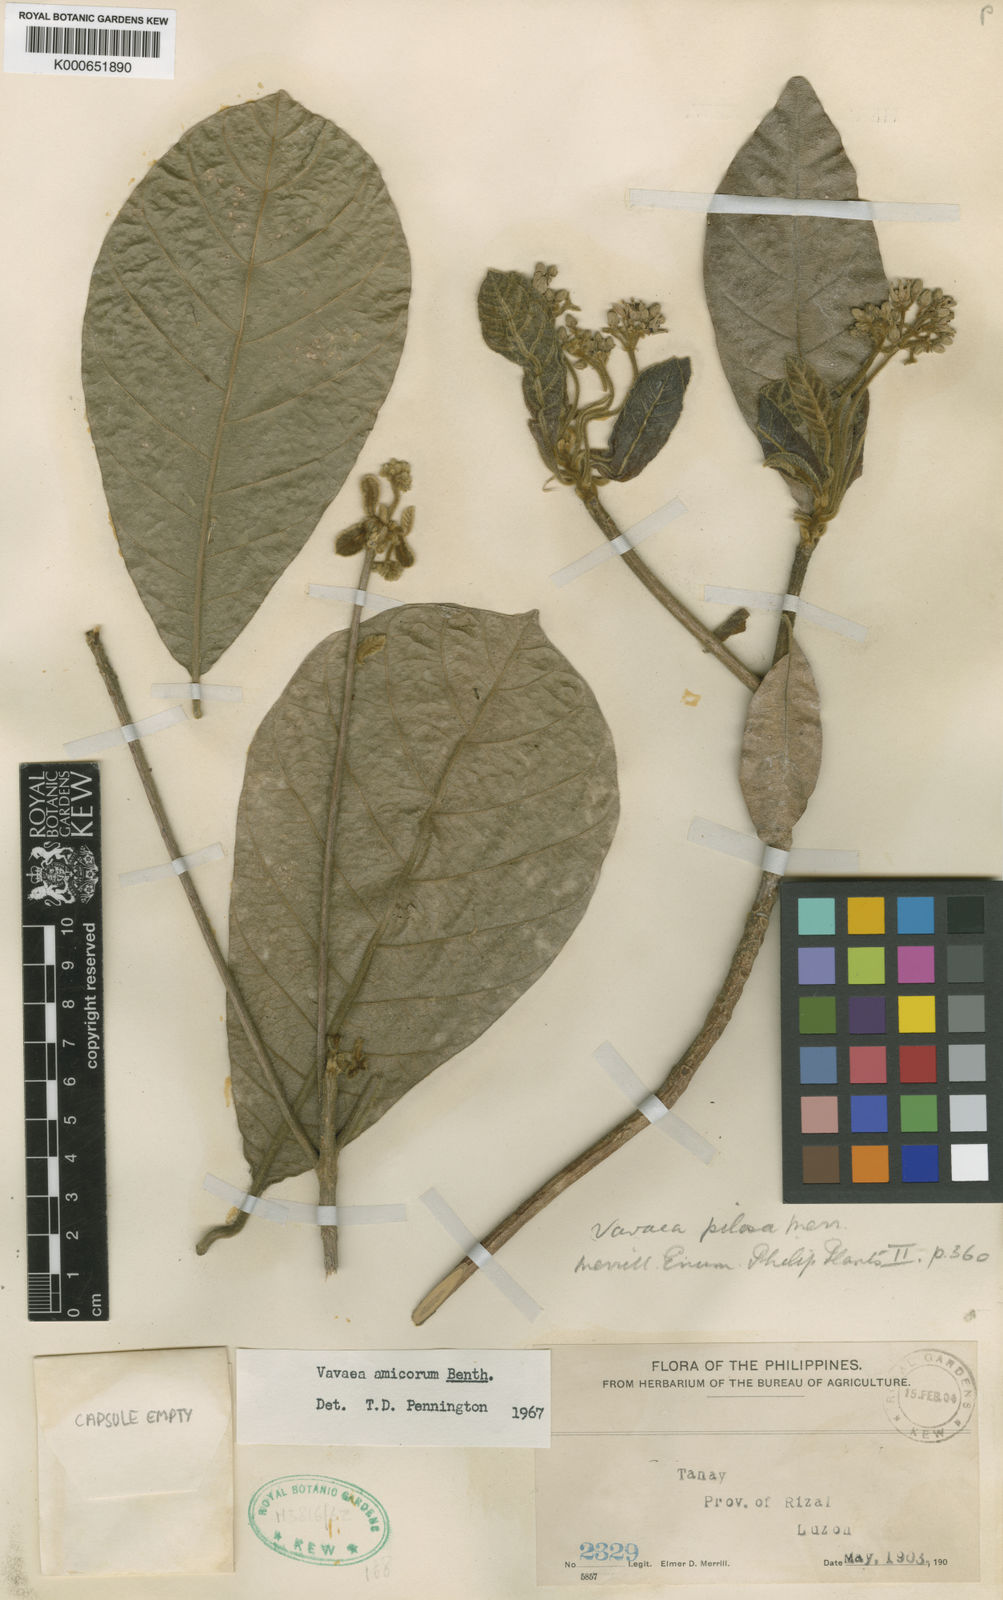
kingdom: Plantae
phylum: Tracheophyta
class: Magnoliopsida
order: Sapindales
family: Meliaceae
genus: Vavaea
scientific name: Vavaea amicorum
